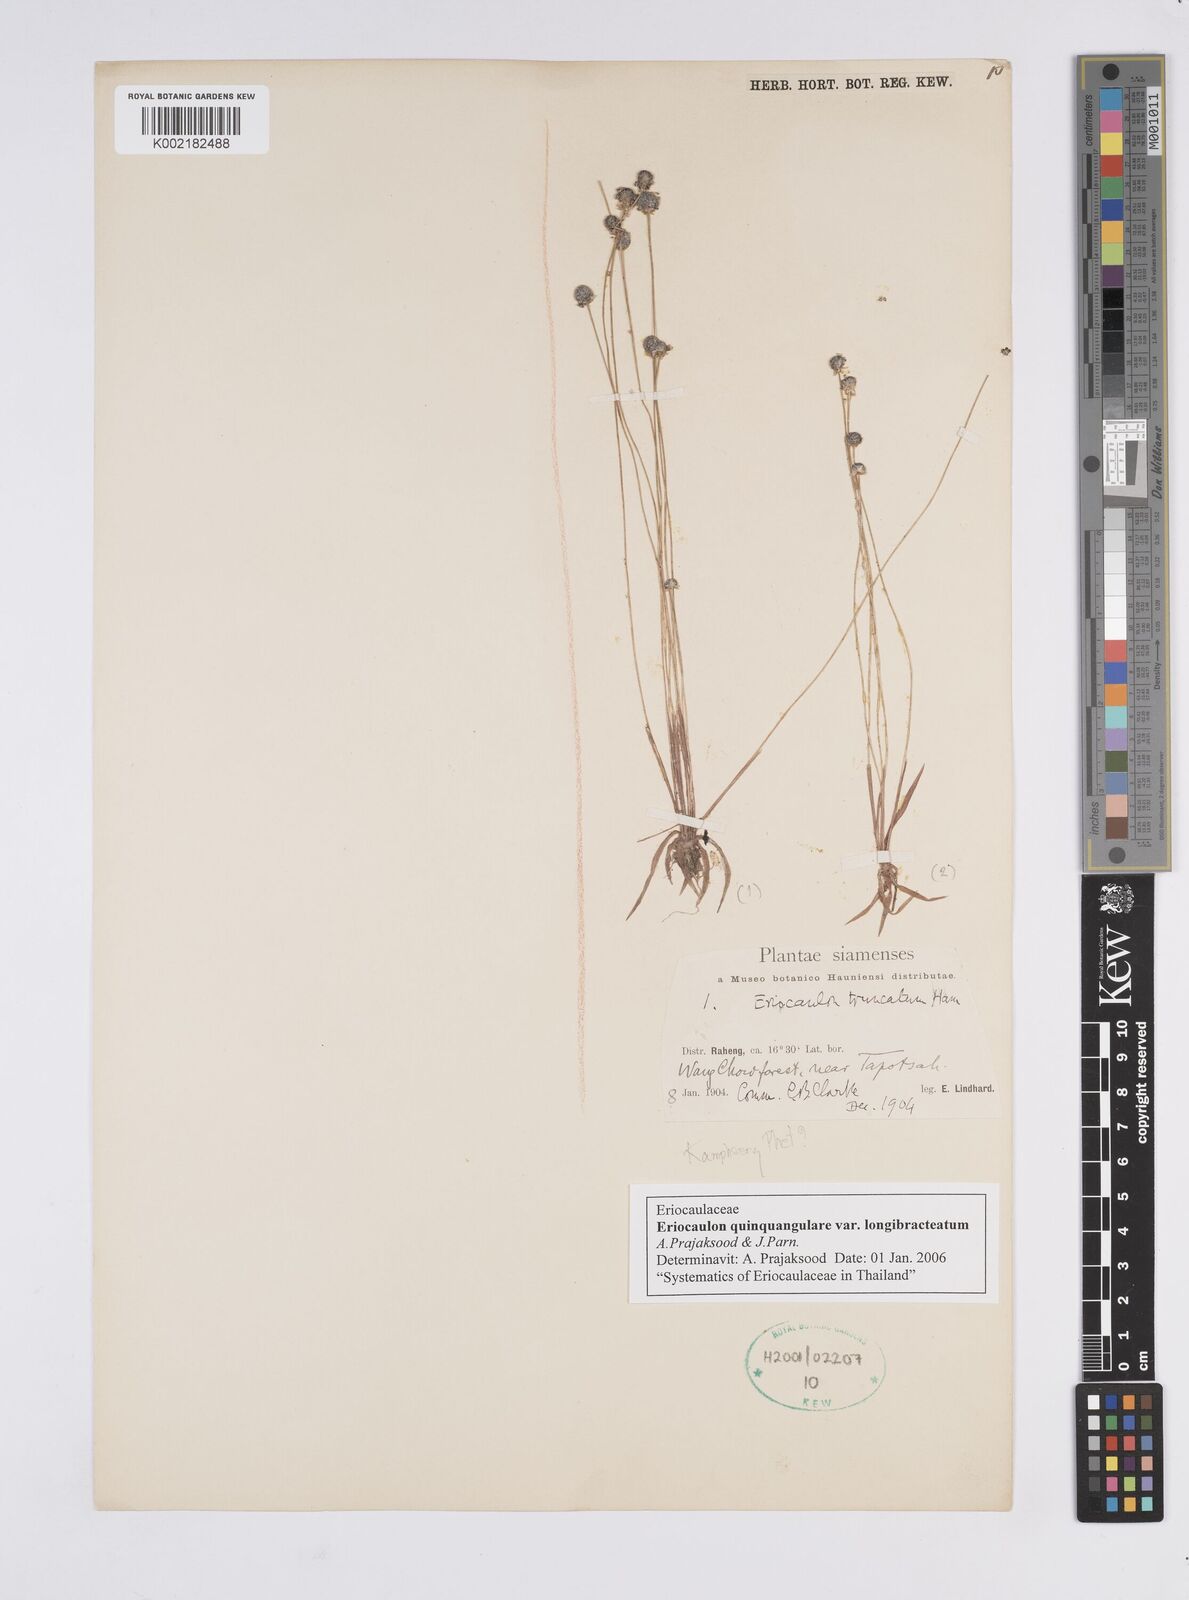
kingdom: Plantae
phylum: Tracheophyta
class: Liliopsida
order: Poales
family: Eriocaulaceae
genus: Eriocaulon
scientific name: Eriocaulon quinquangulare
